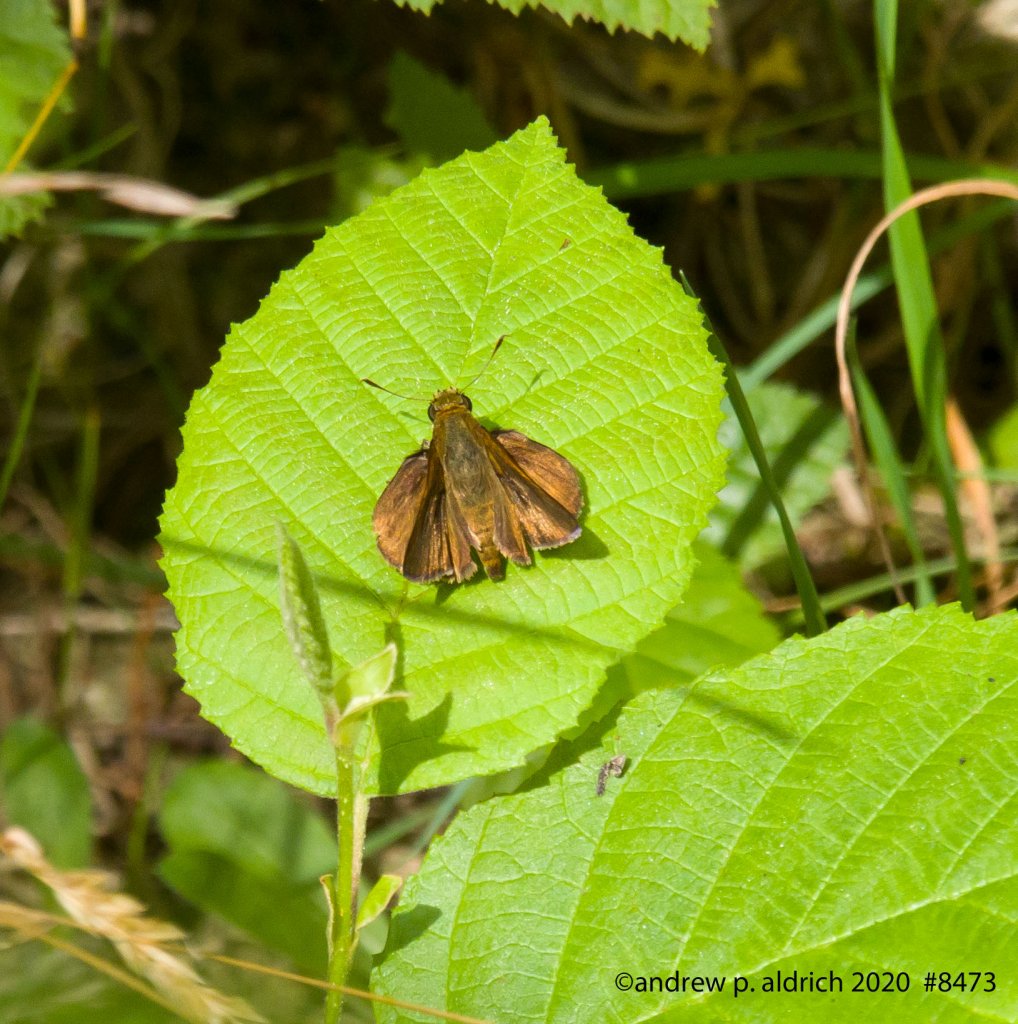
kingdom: Animalia
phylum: Arthropoda
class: Insecta
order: Lepidoptera
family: Hesperiidae
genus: Euphyes
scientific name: Euphyes vestris
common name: Dun Skipper
